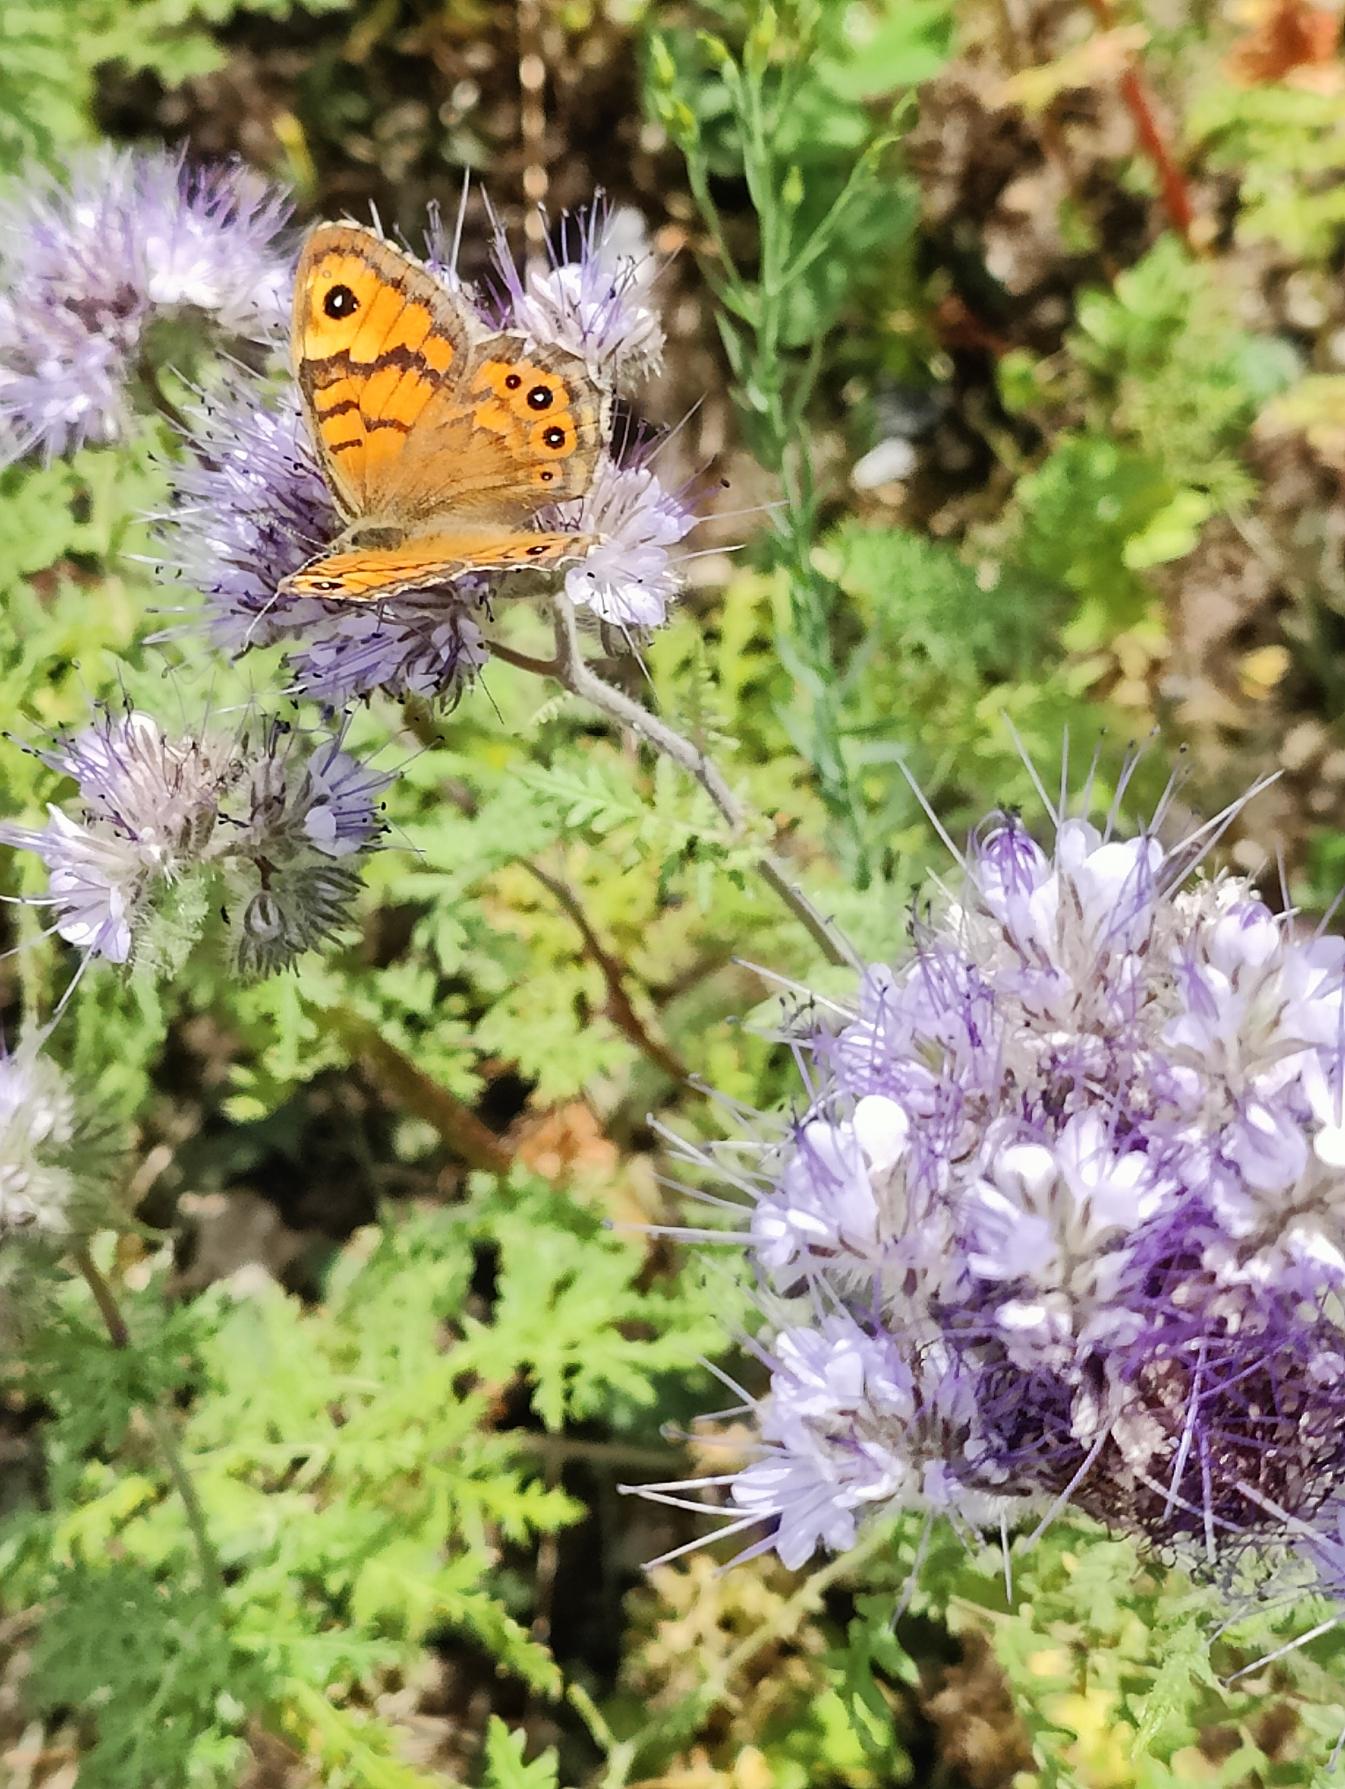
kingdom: Animalia
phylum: Arthropoda
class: Insecta
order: Lepidoptera
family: Nymphalidae
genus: Pararge
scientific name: Pararge Lasiommata megera
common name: Vejrandøje
